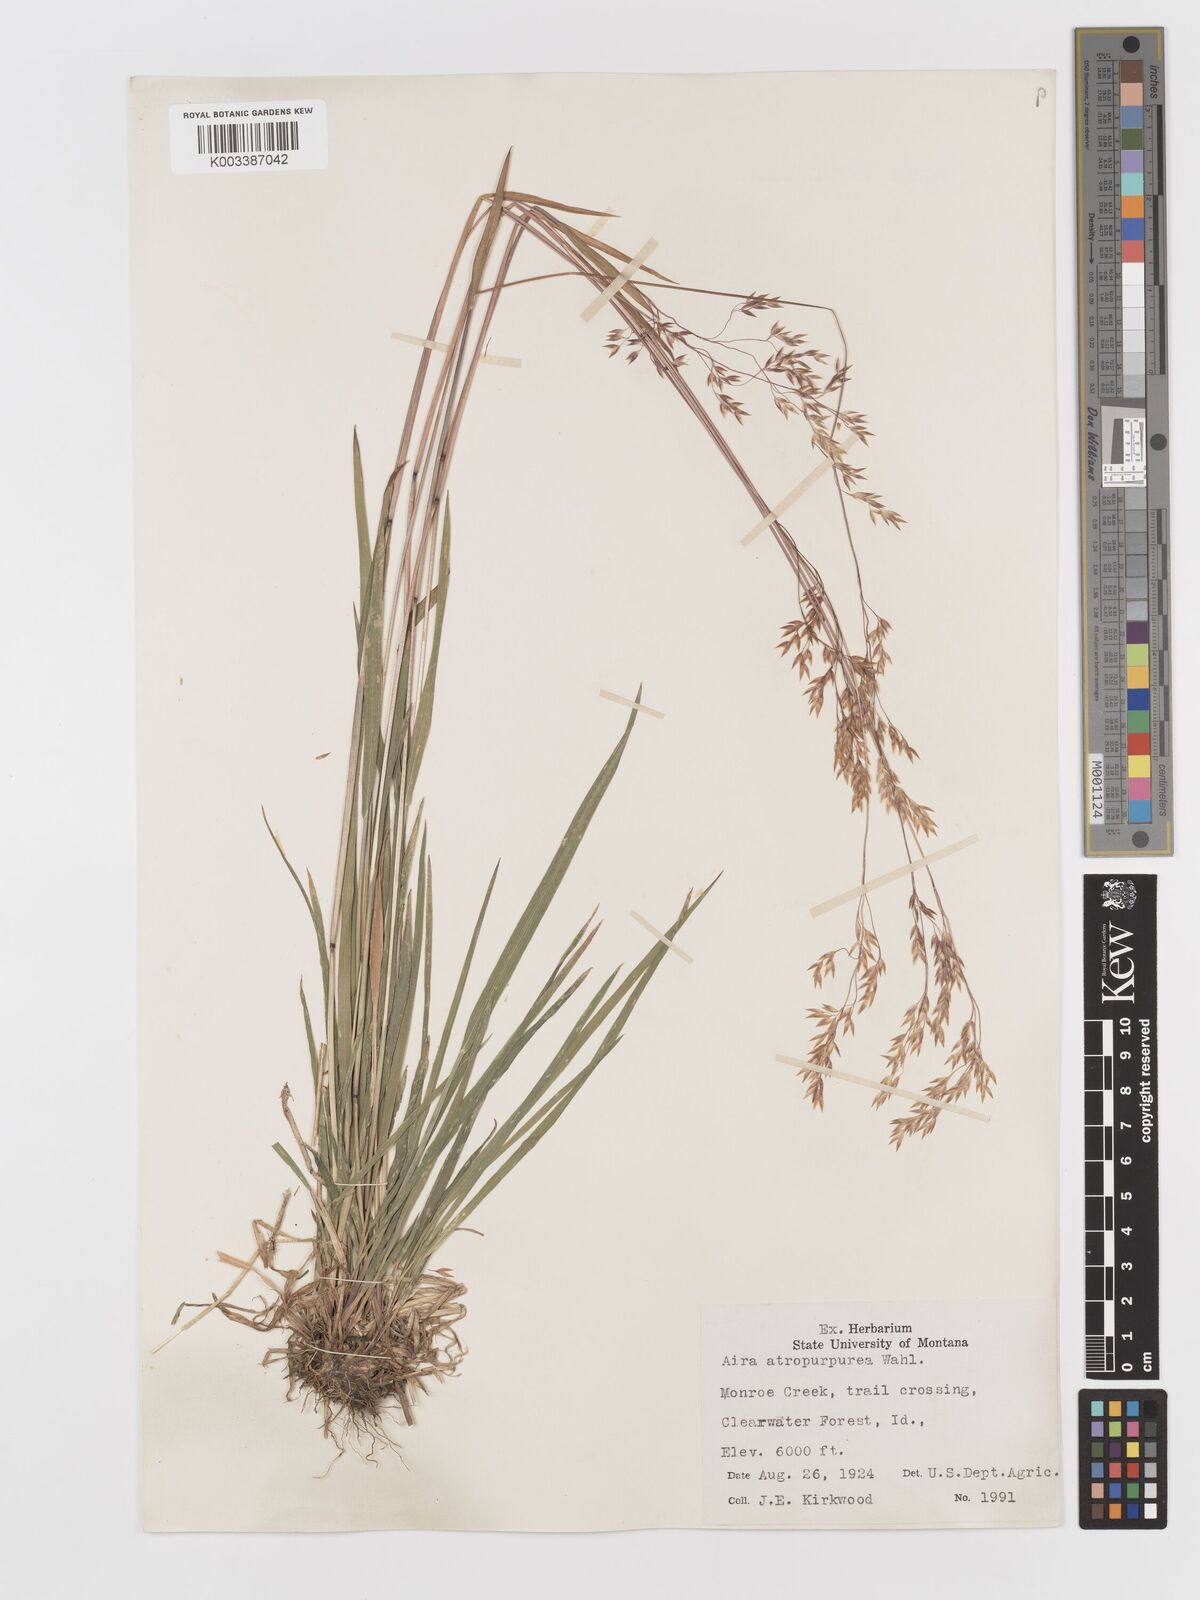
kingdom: Plantae
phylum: Tracheophyta
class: Liliopsida
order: Poales
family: Poaceae
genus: Vahlodea
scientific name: Vahlodea atropurpurea
